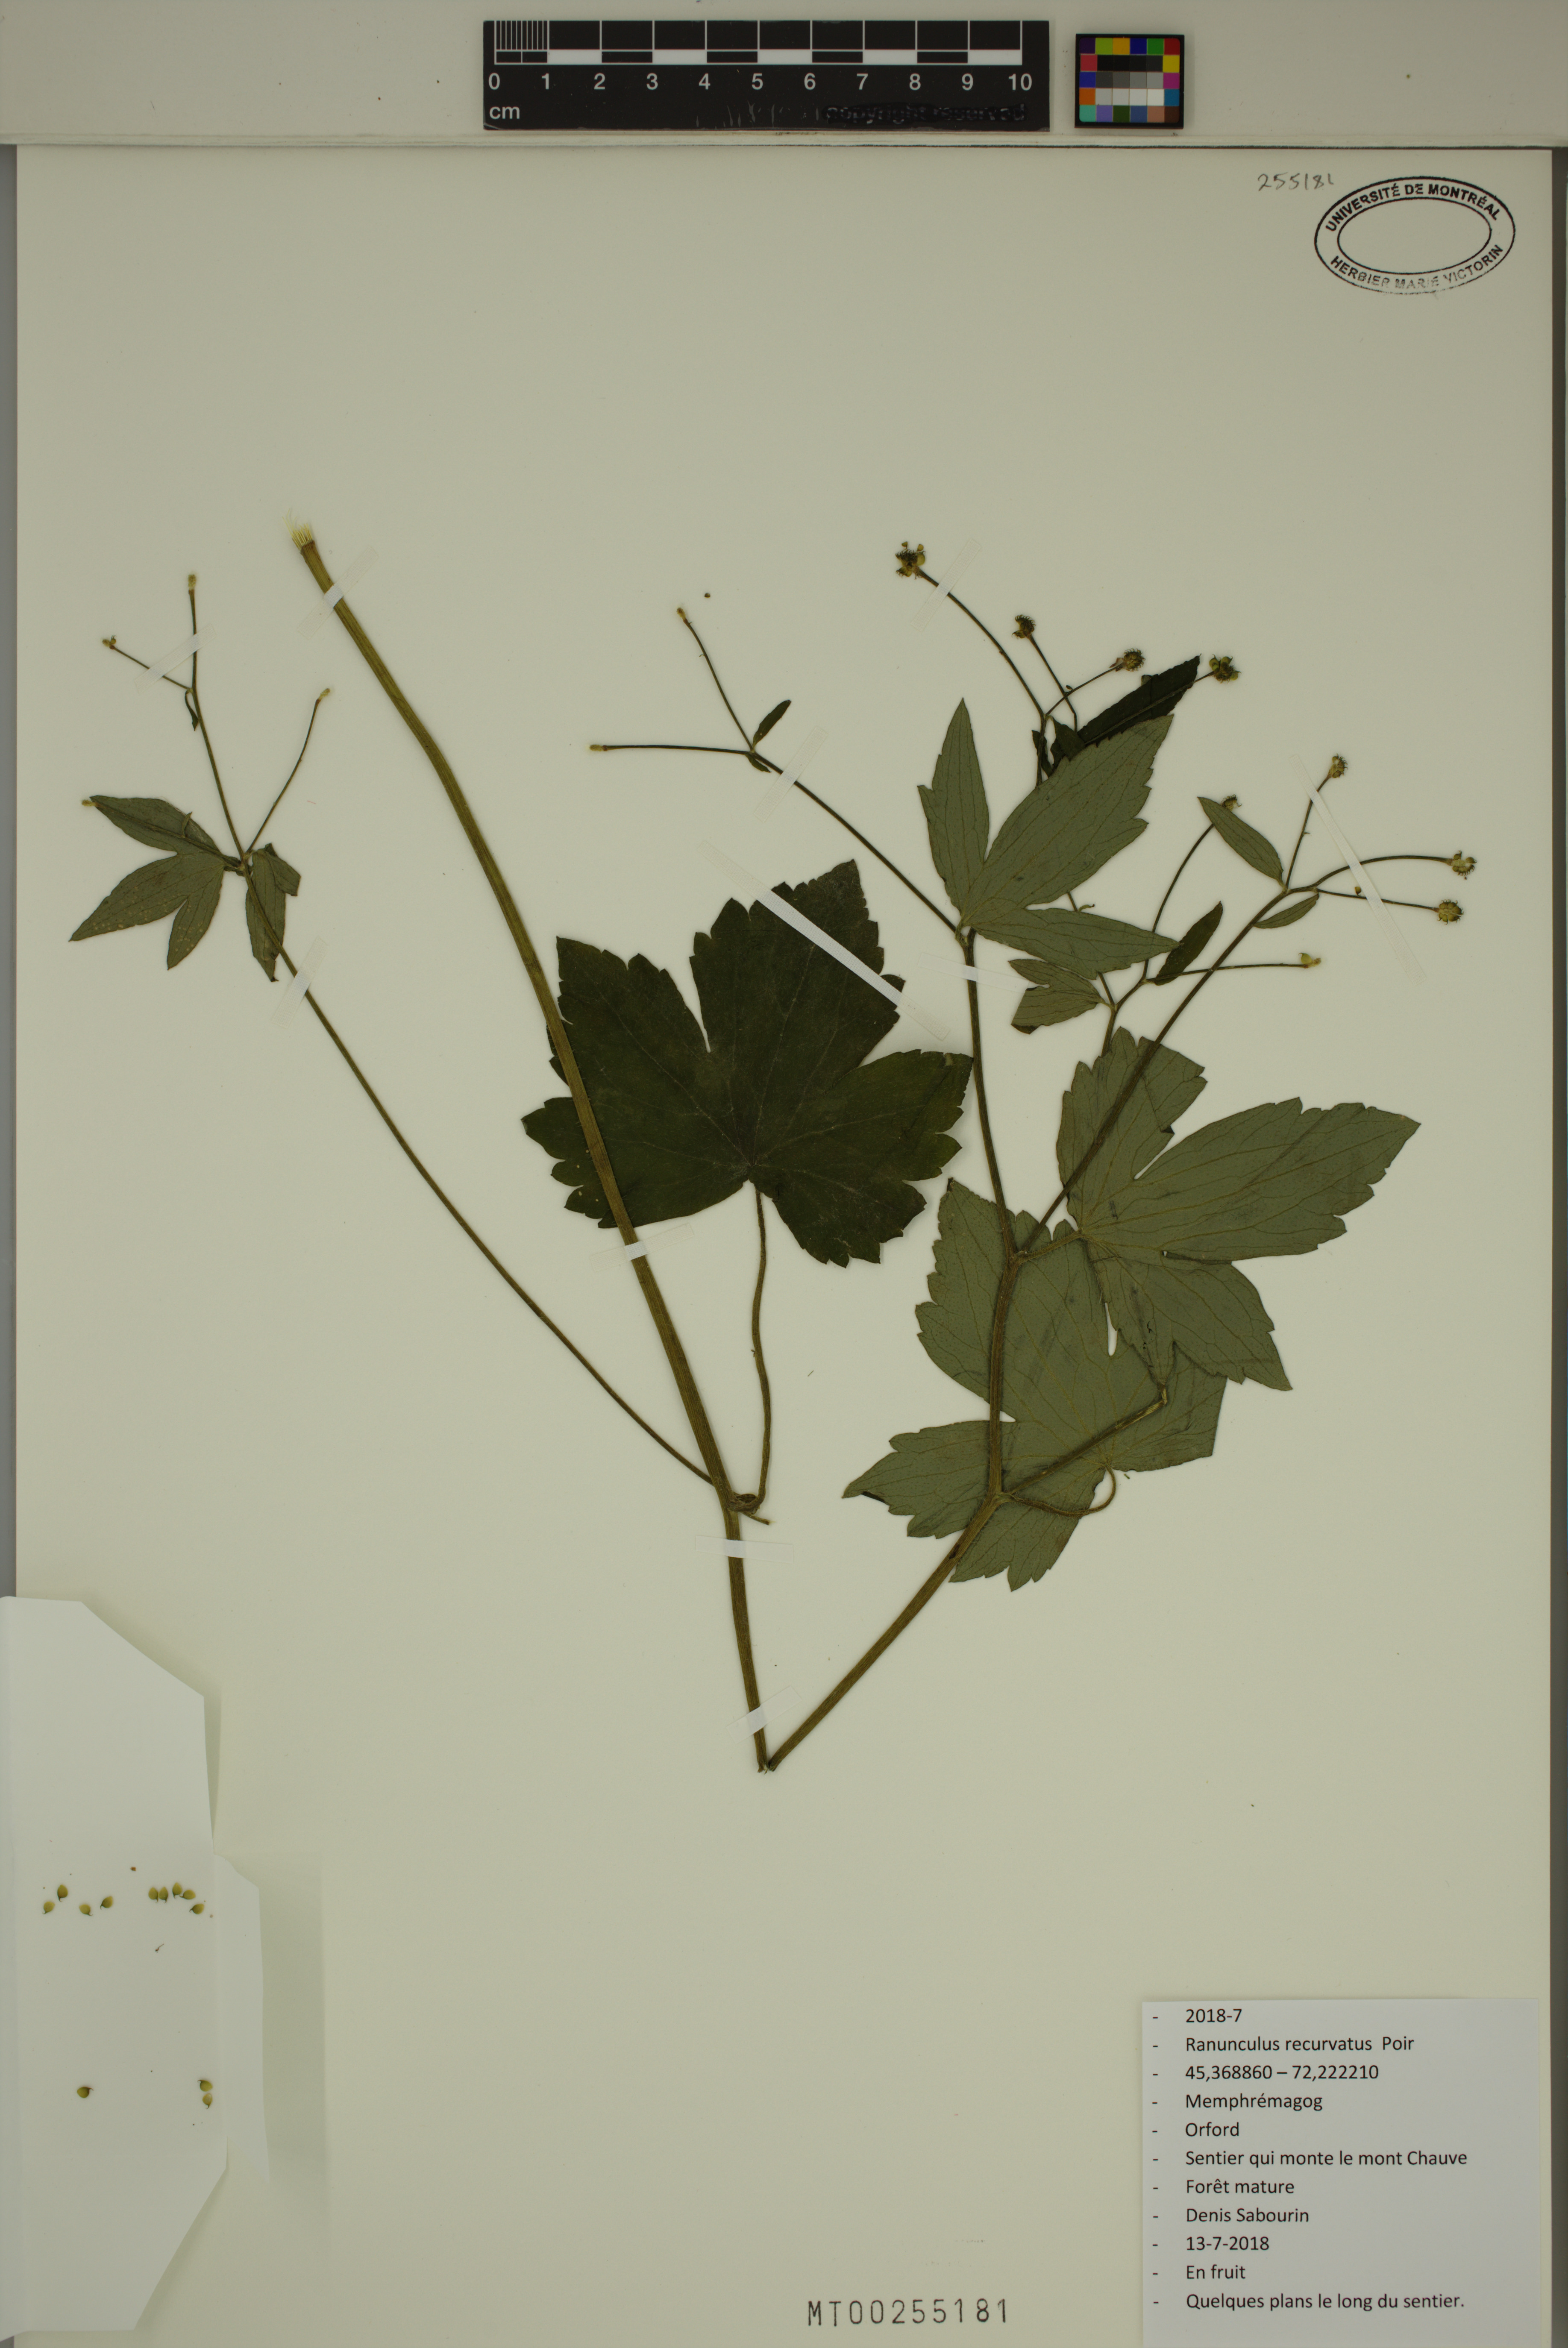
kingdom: Plantae
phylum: Tracheophyta
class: Magnoliopsida
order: Ranunculales
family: Ranunculaceae
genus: Ranunculus
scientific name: Ranunculus recurvatus
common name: Blisterwort
